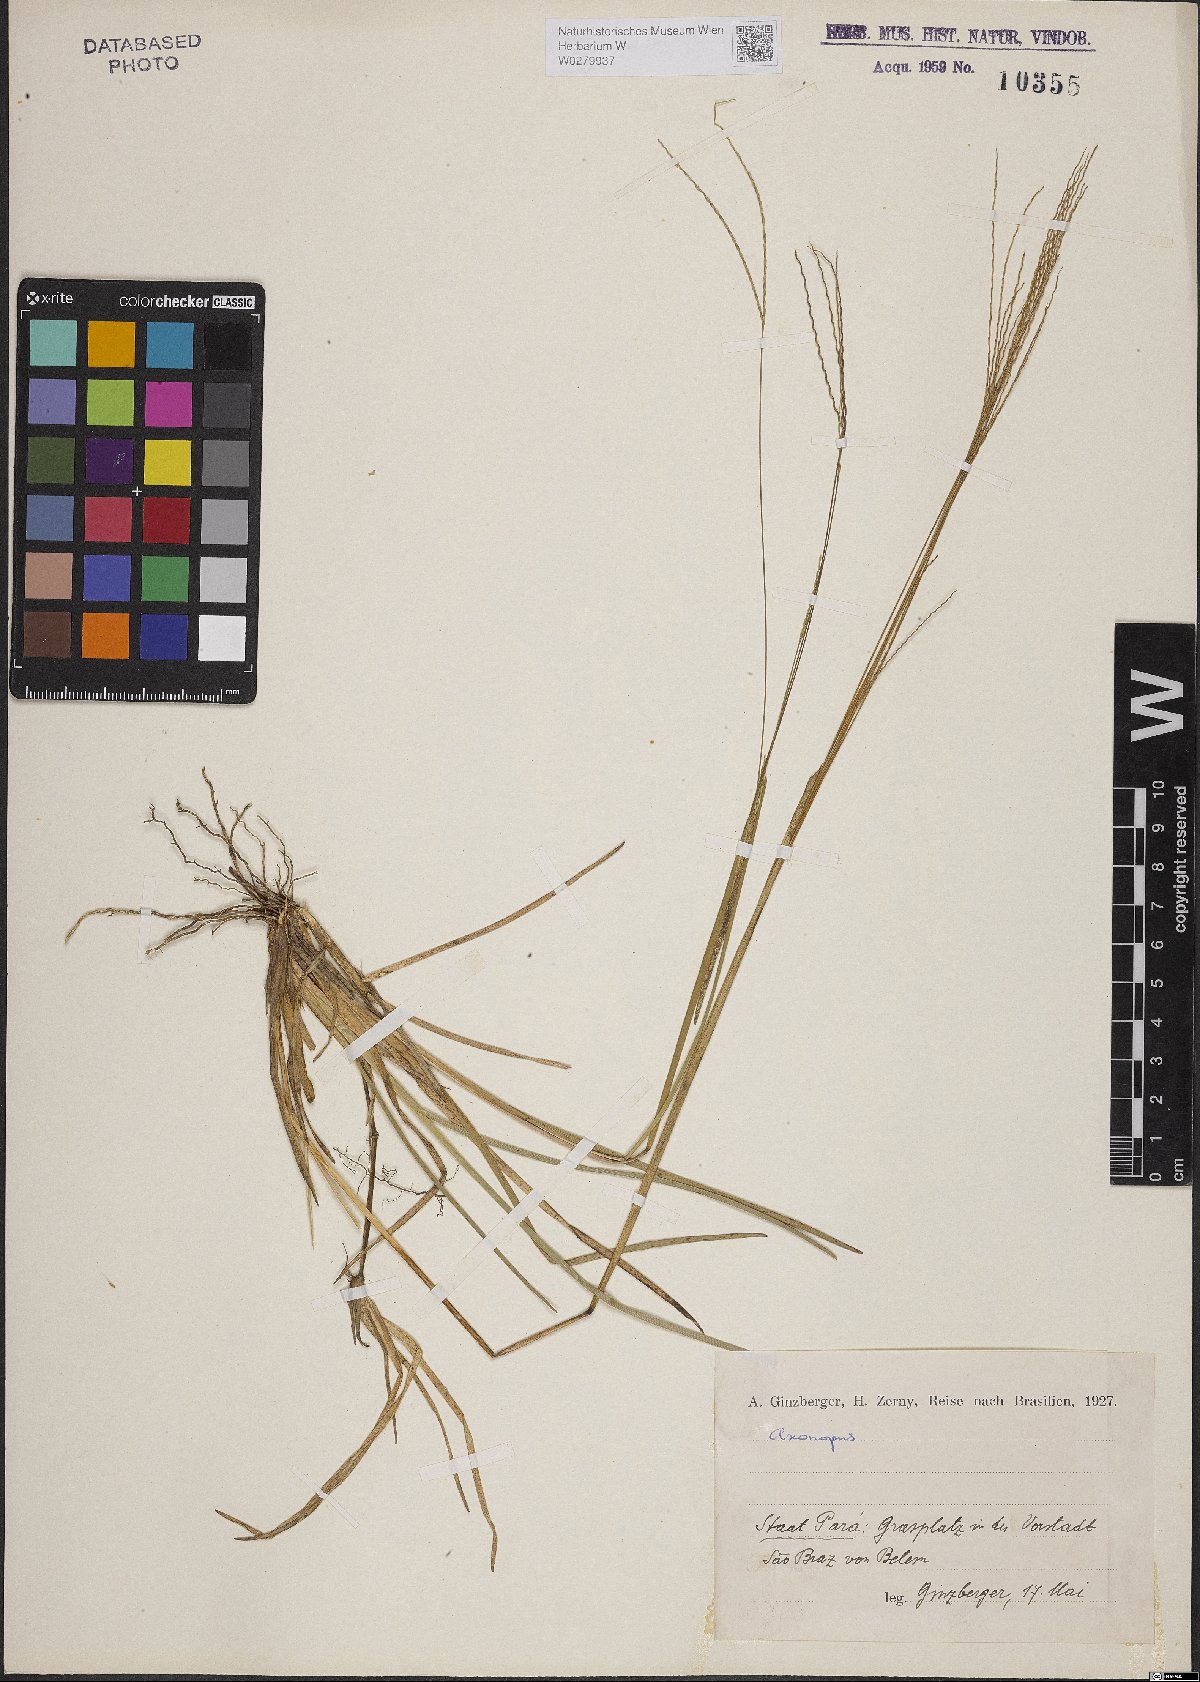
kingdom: Plantae
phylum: Tracheophyta
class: Liliopsida
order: Poales
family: Poaceae
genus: Axonopus
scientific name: Axonopus
